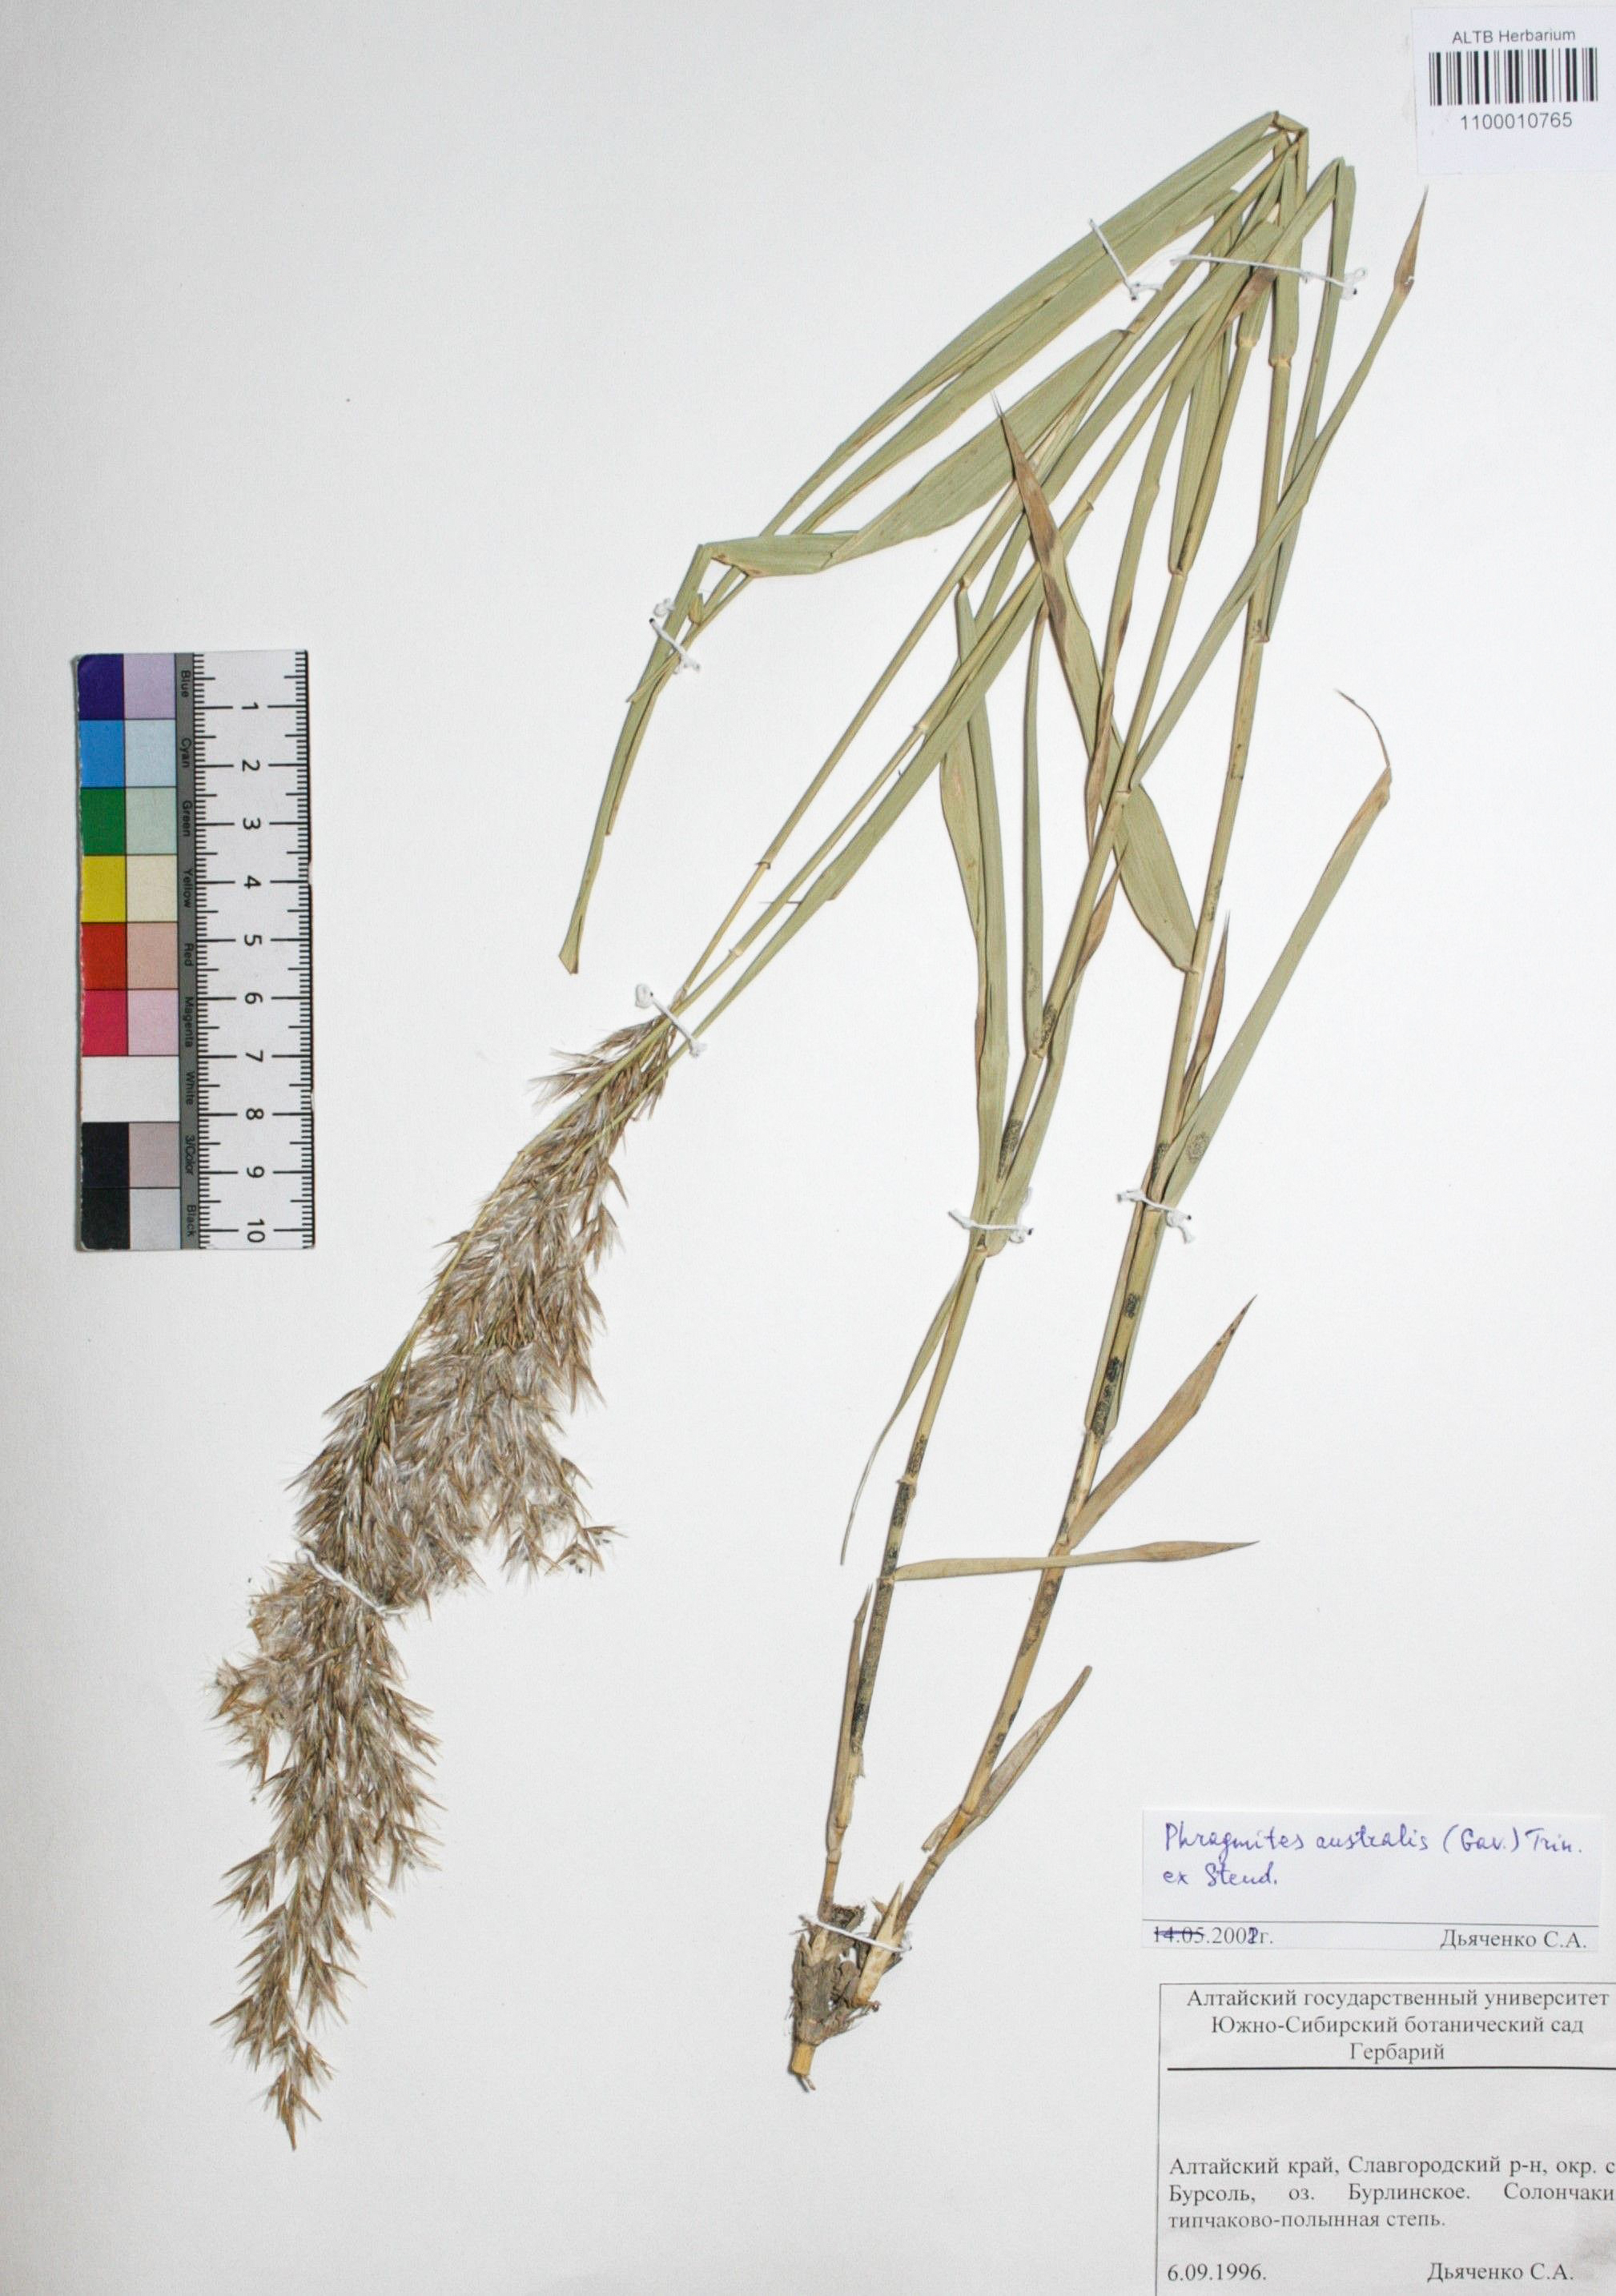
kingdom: Plantae
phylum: Tracheophyta
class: Liliopsida
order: Poales
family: Poaceae
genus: Phragmites
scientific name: Phragmites australis
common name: Common reed
